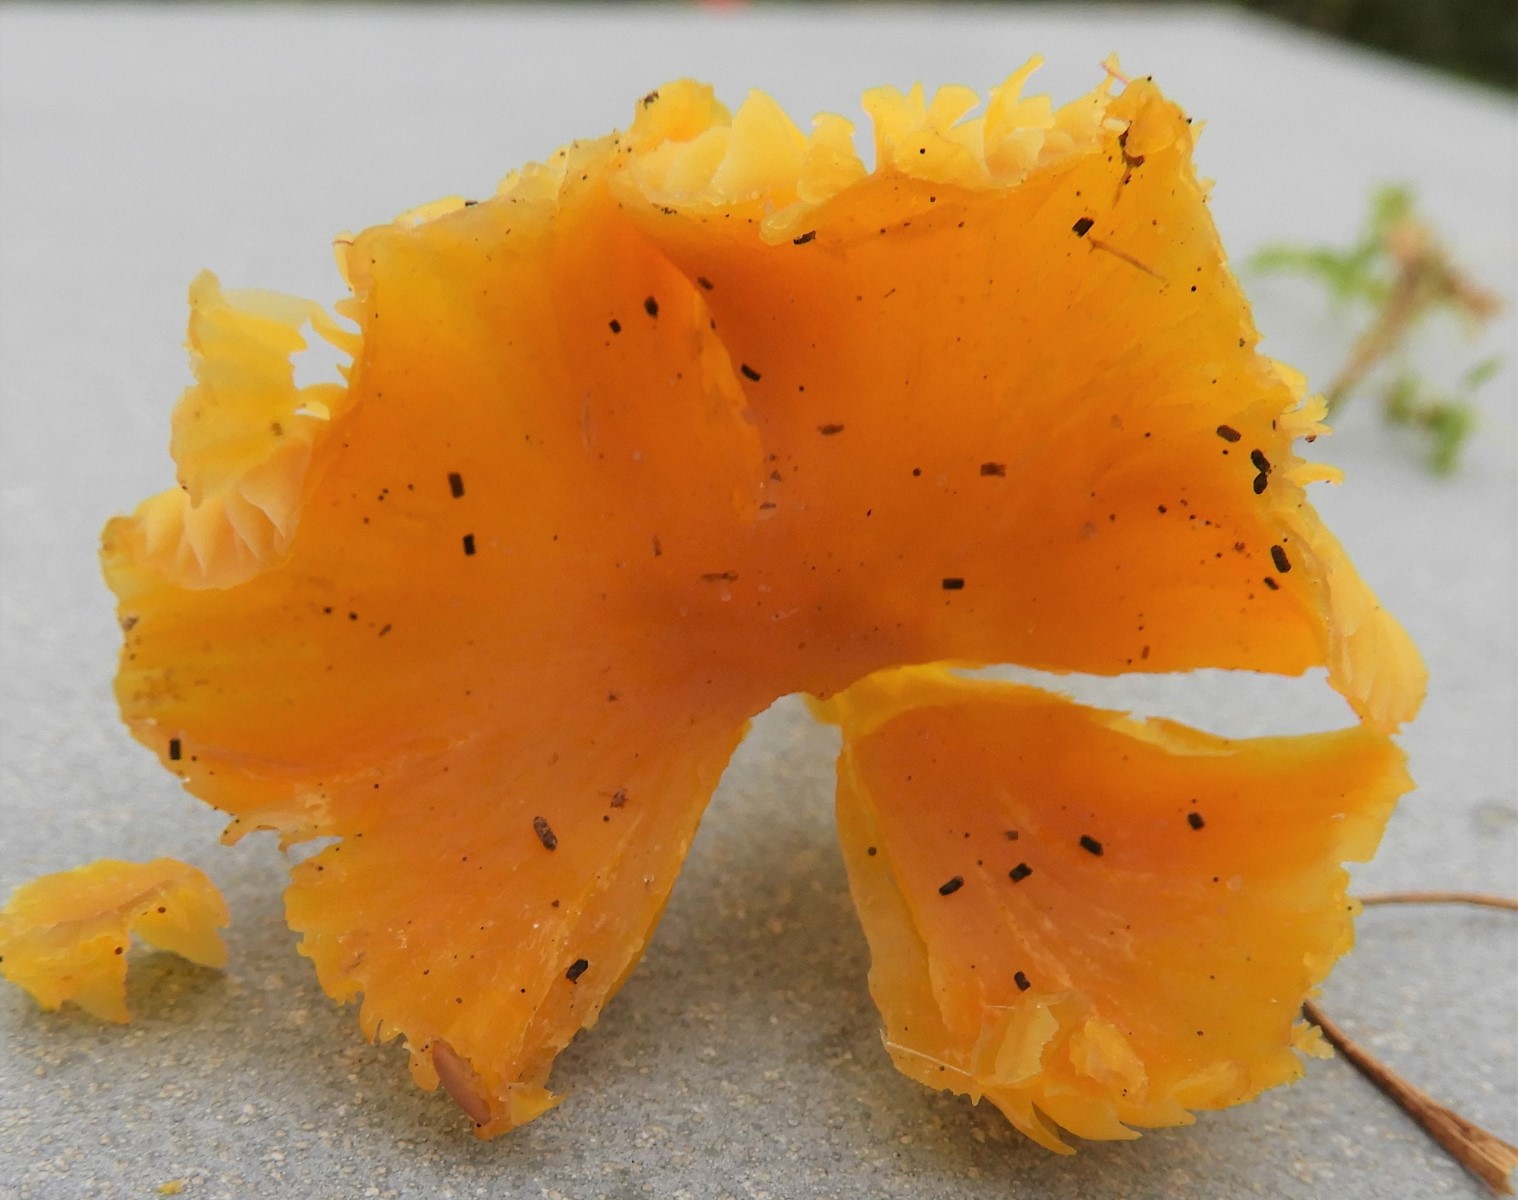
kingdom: Fungi
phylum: Basidiomycota
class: Agaricomycetes
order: Agaricales
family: Hygrophoraceae
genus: Hygrocybe
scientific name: Hygrocybe ceracea
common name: voksgul vokshat
